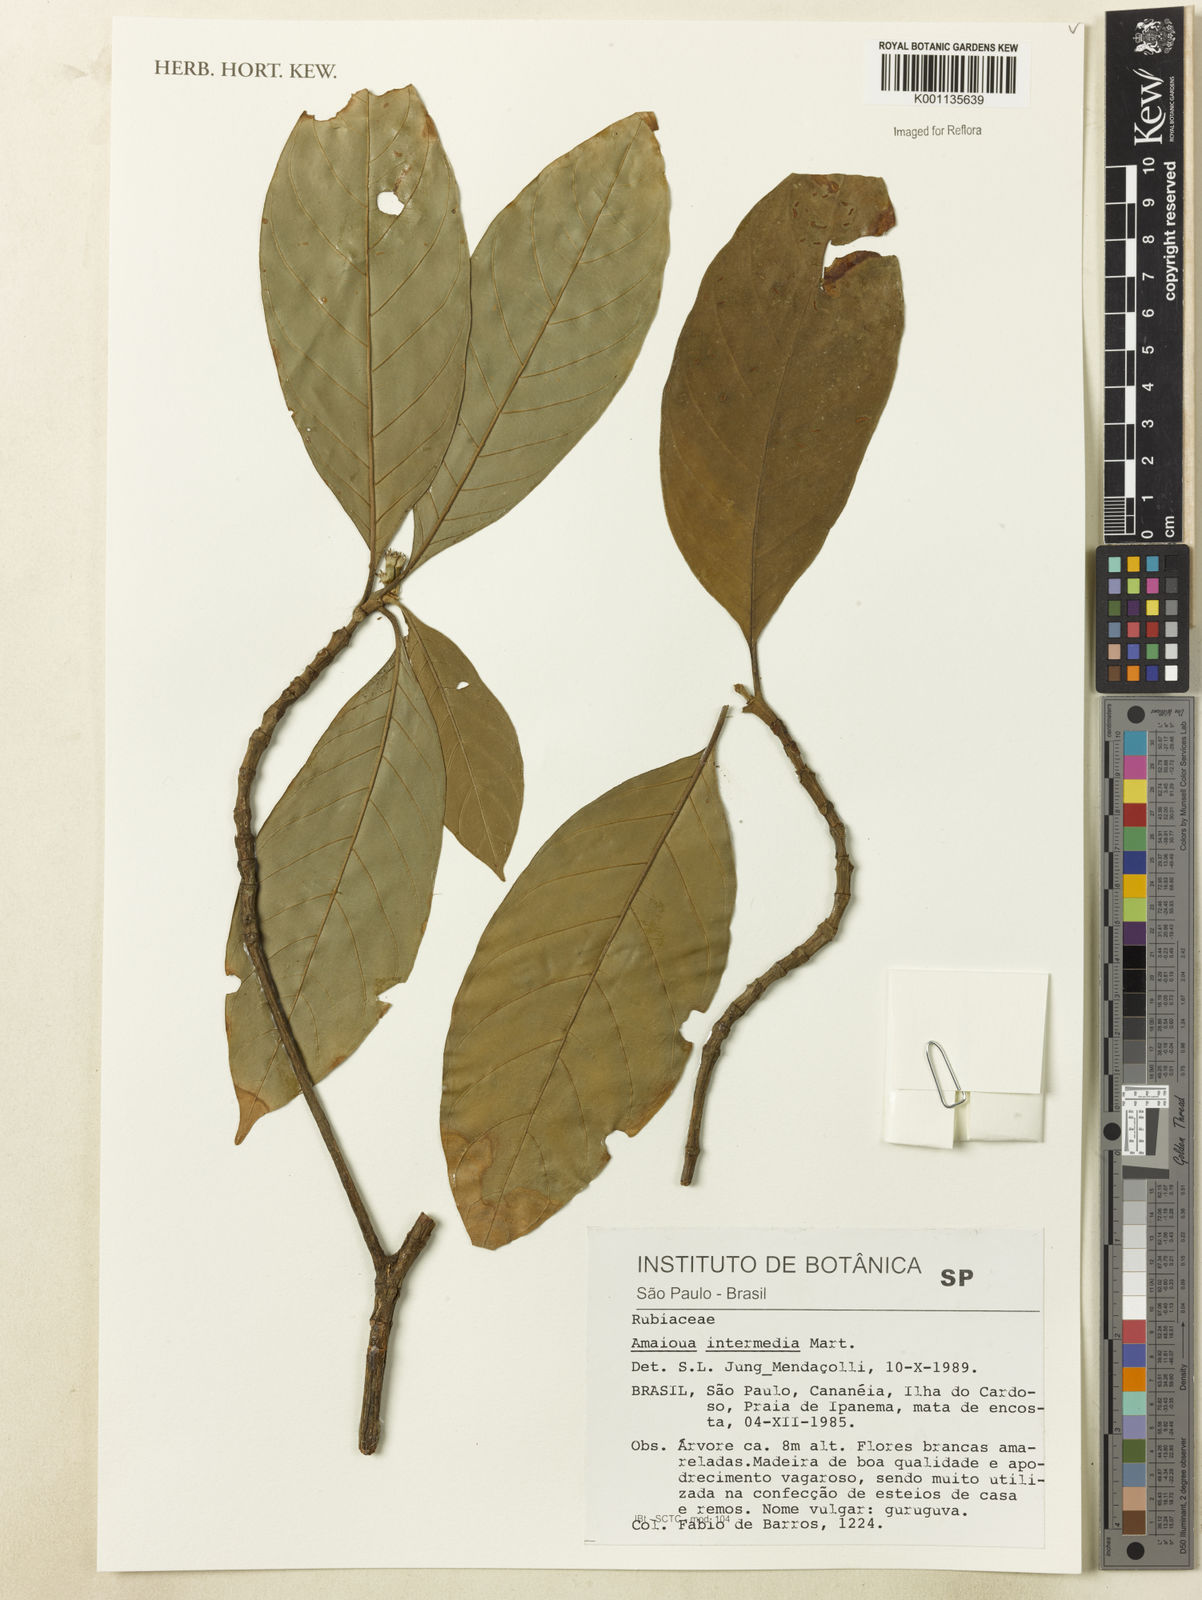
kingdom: Plantae
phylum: Tracheophyta
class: Magnoliopsida
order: Gentianales
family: Rubiaceae
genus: Amaioua
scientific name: Amaioua intermedia
